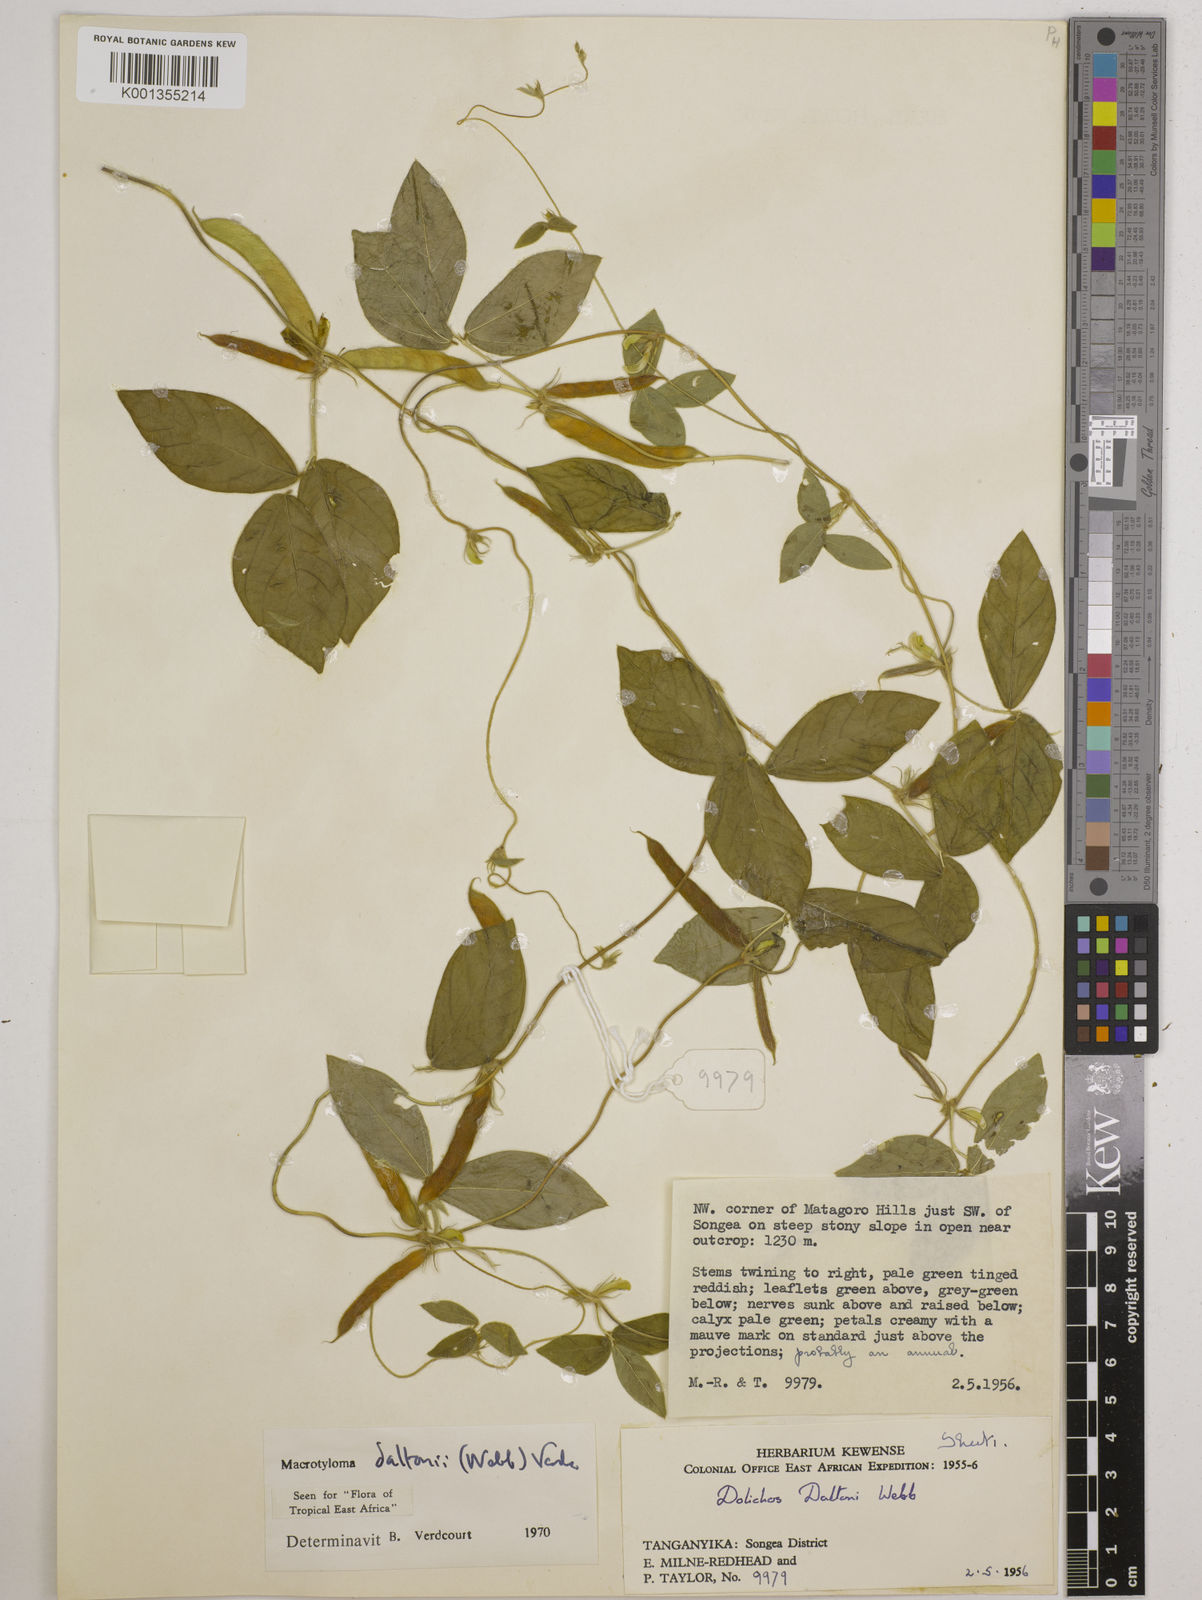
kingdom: Plantae
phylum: Tracheophyta
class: Magnoliopsida
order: Fabales
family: Fabaceae
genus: Macrotyloma
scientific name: Macrotyloma daltonii
